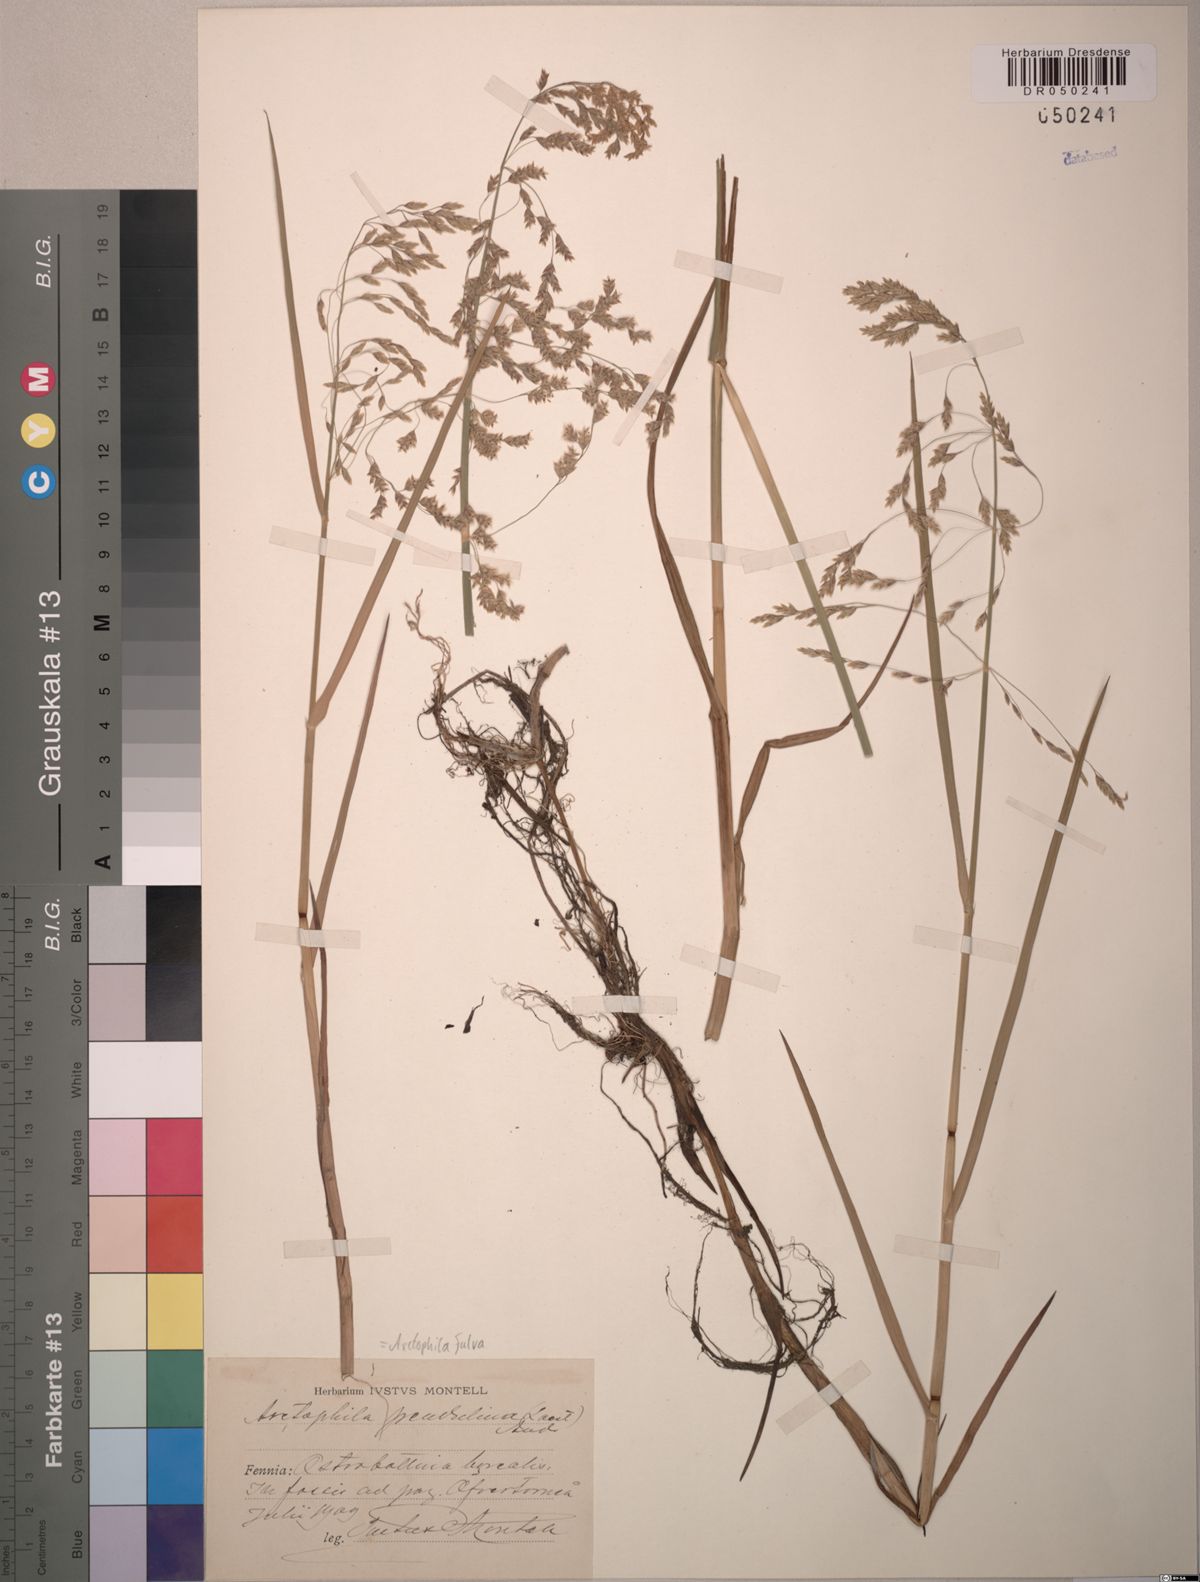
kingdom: Plantae
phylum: Tracheophyta
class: Liliopsida
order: Poales
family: Poaceae
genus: Dupontia
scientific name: Dupontia fulva
